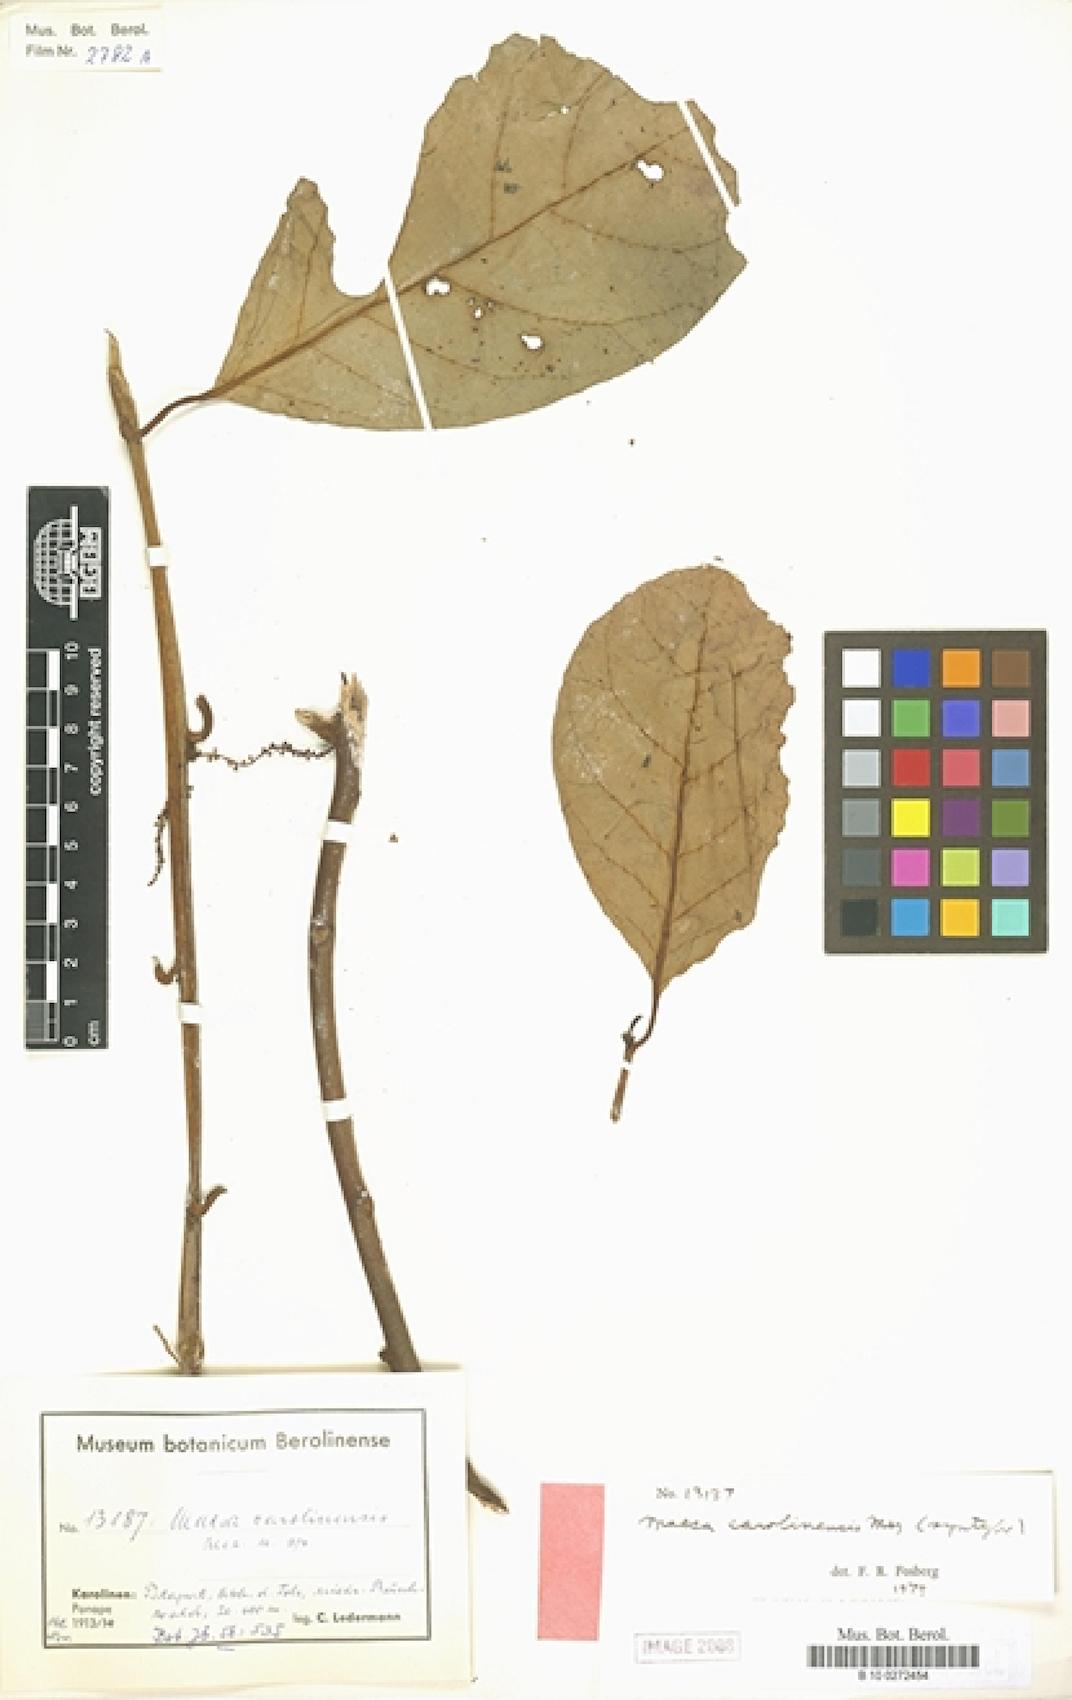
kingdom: Plantae
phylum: Tracheophyta
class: Magnoliopsida
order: Ericales
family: Primulaceae
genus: Maesa
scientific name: Maesa carolinensis
